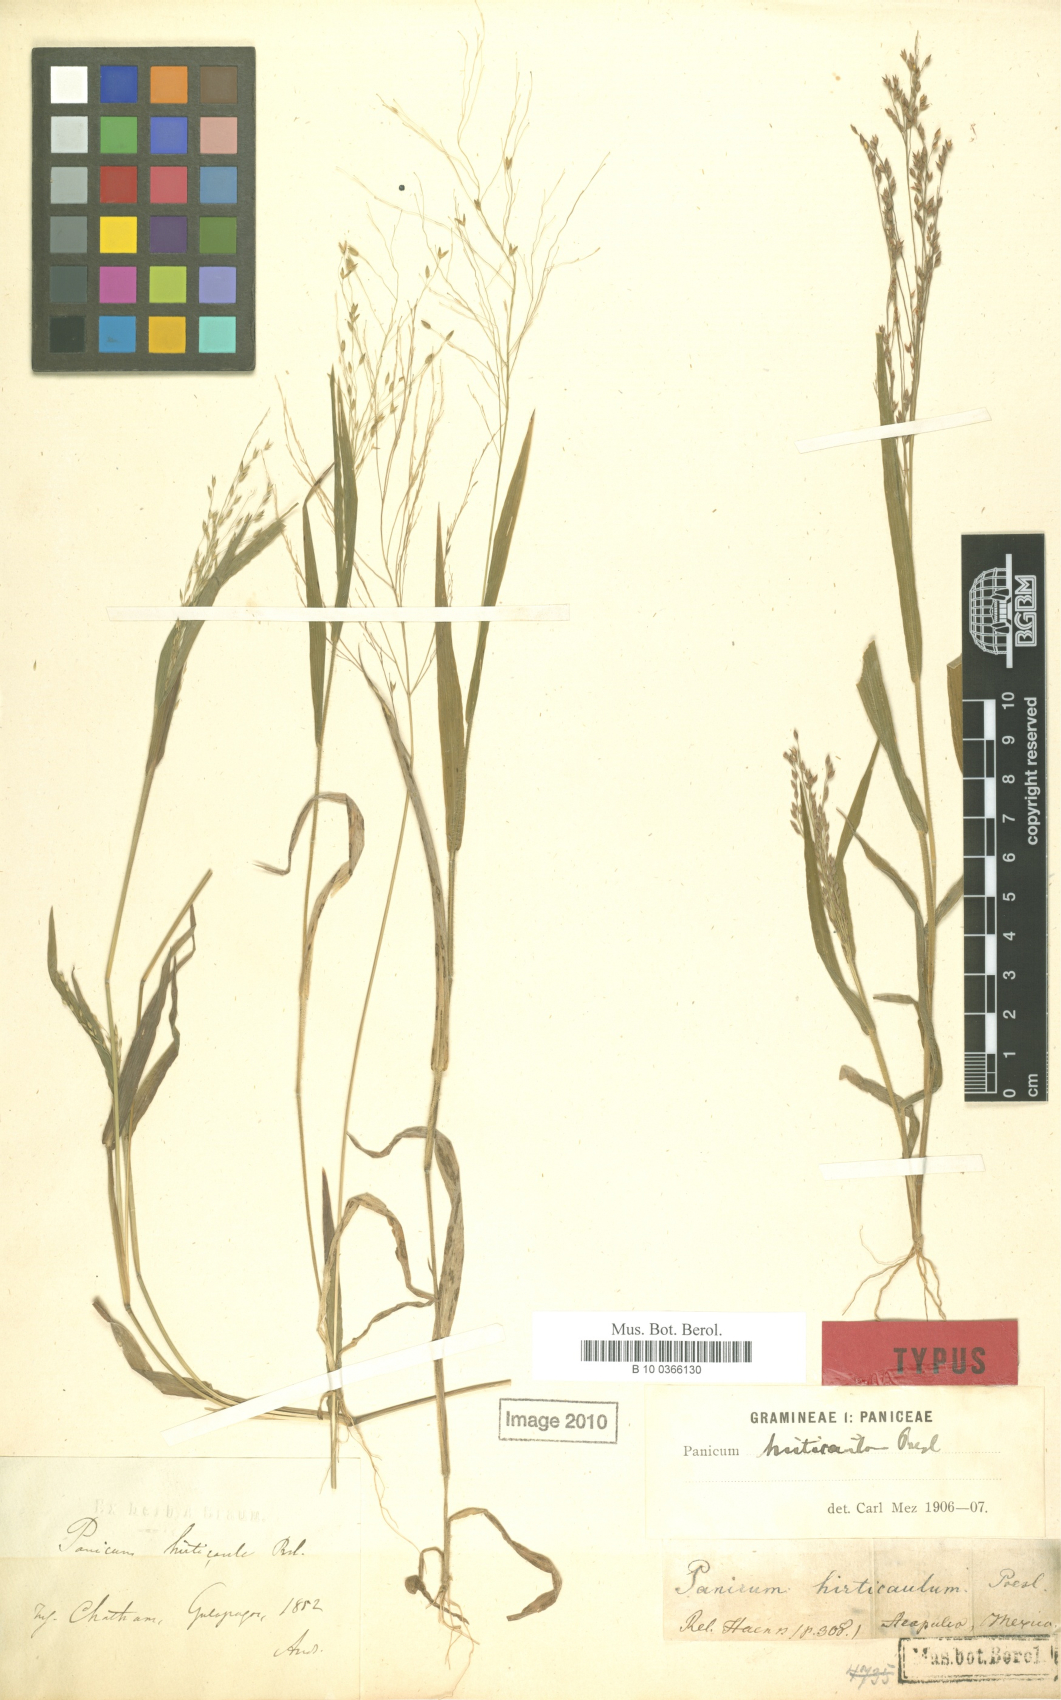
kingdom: Plantae
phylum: Tracheophyta
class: Liliopsida
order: Poales
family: Poaceae
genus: Panicum
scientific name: Panicum hirticaule
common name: Rough-stalk witchgrass
